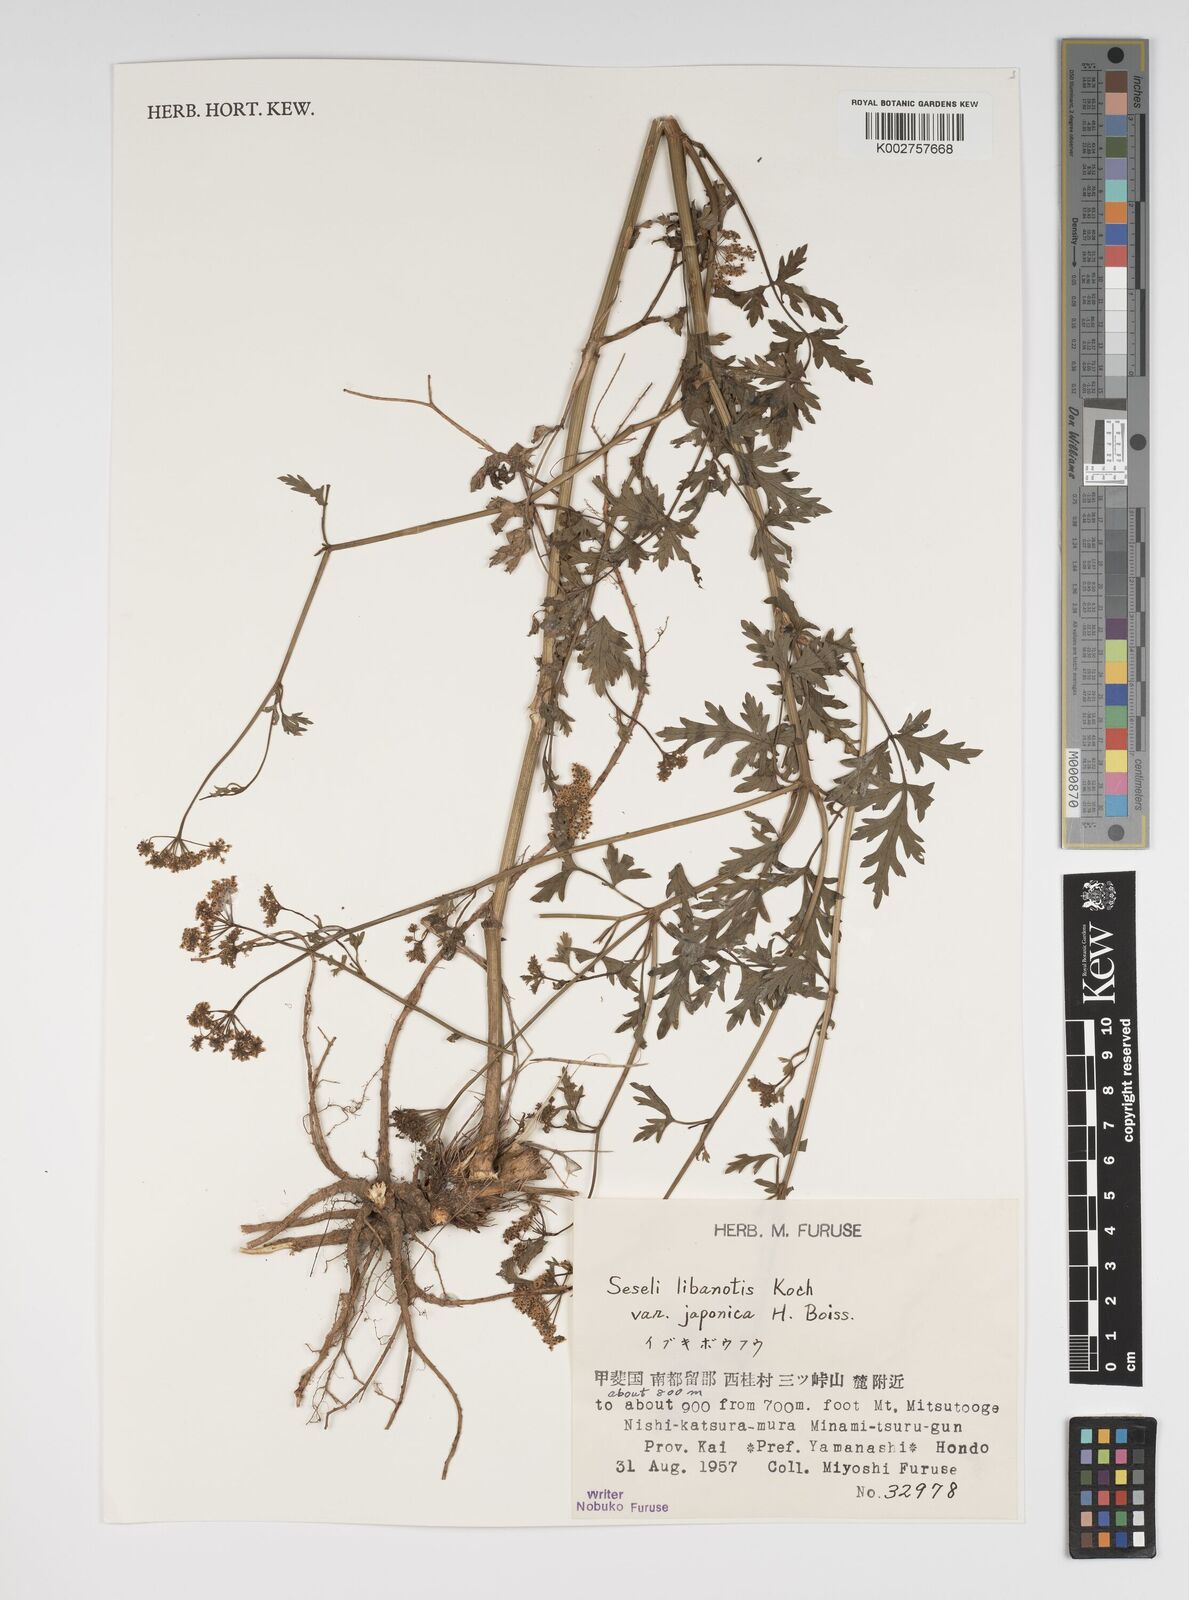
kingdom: Plantae
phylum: Tracheophyta
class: Magnoliopsida
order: Apiales
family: Apiaceae
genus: Seseli
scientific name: Seseli libanotis
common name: Mooncarrot
